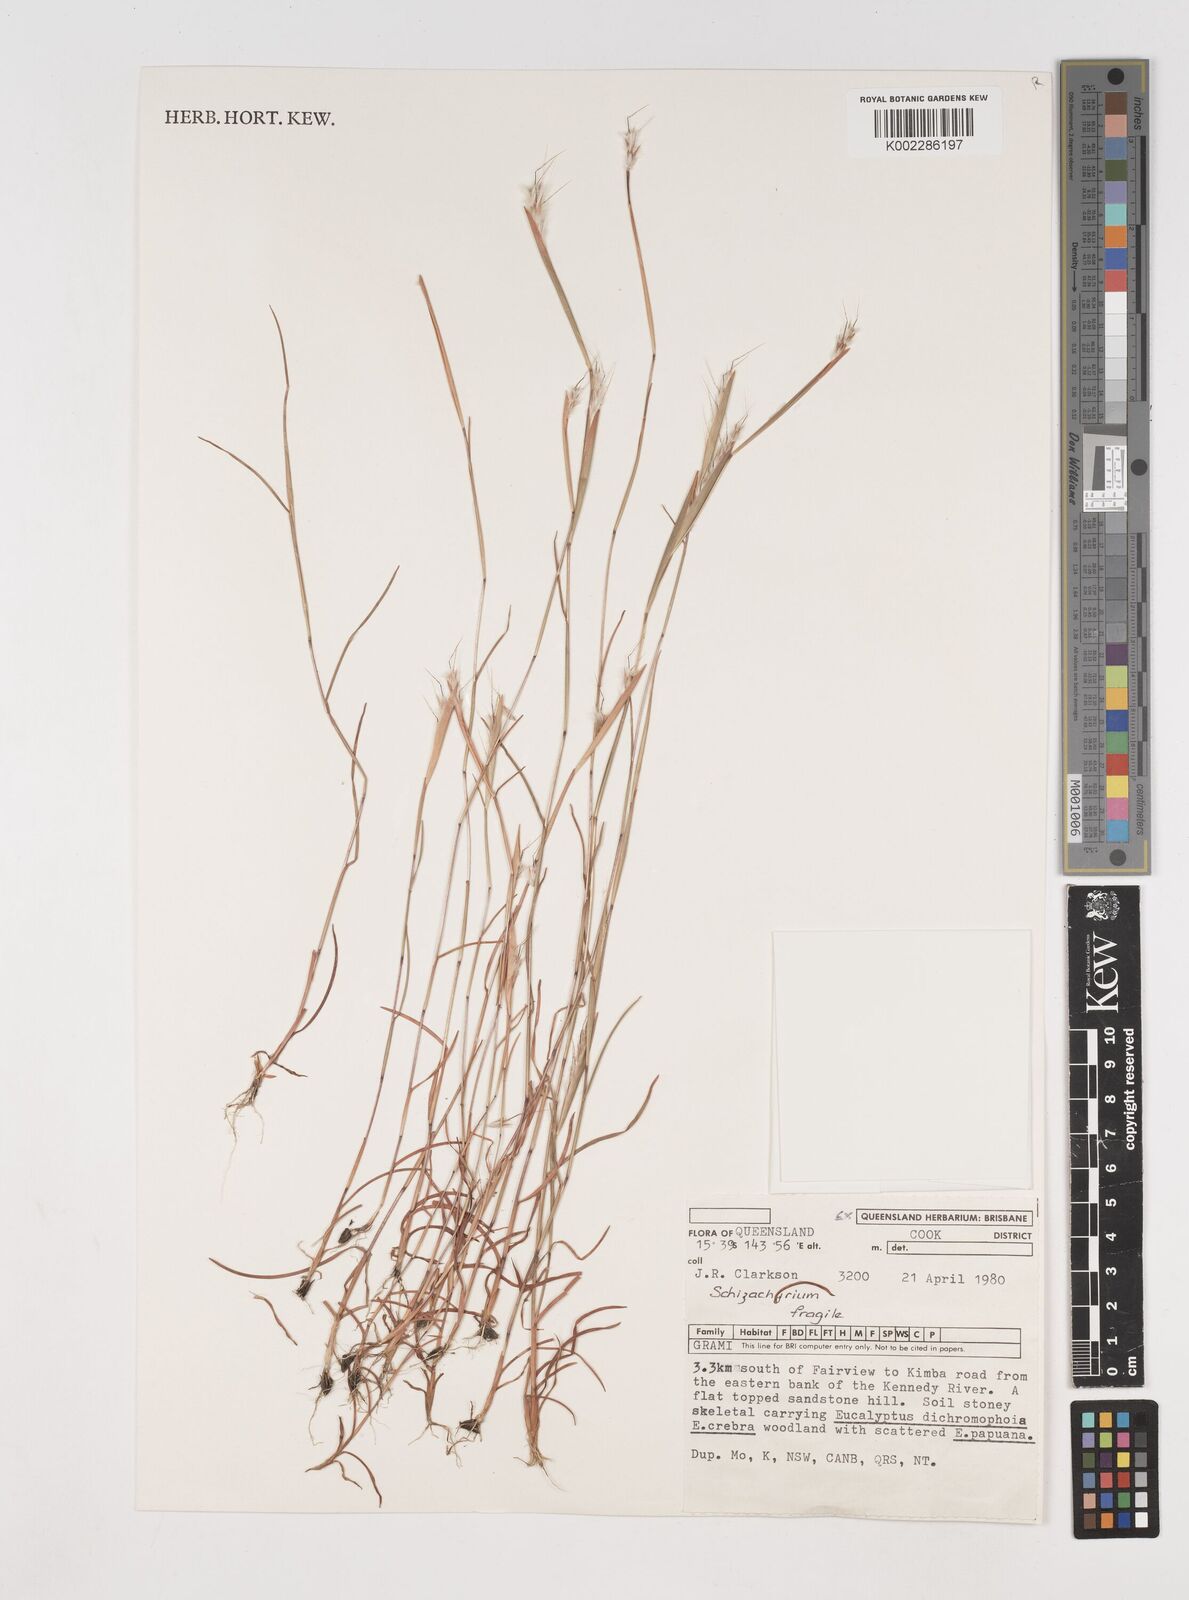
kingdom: Plantae
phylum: Tracheophyta
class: Liliopsida
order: Poales
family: Poaceae
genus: Schizachyrium
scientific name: Schizachyrium fragile
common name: Red spathe grass
